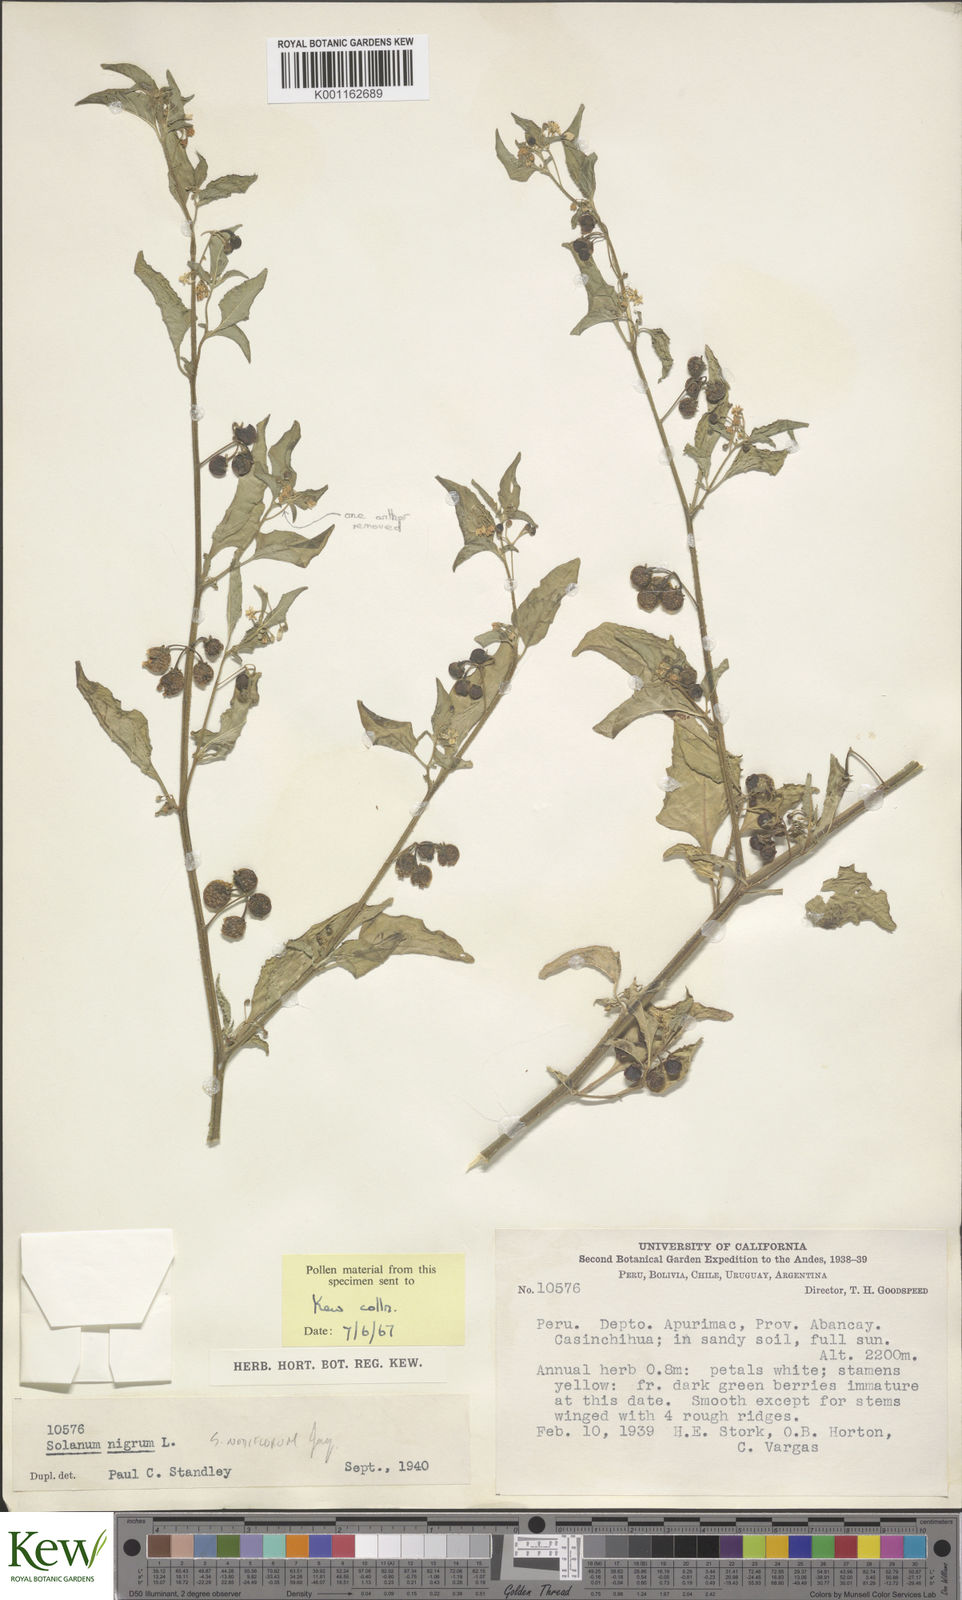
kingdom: Plantae
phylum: Tracheophyta
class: Magnoliopsida
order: Solanales
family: Solanaceae
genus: Solanum
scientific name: Solanum americanum
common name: American black nightshade
